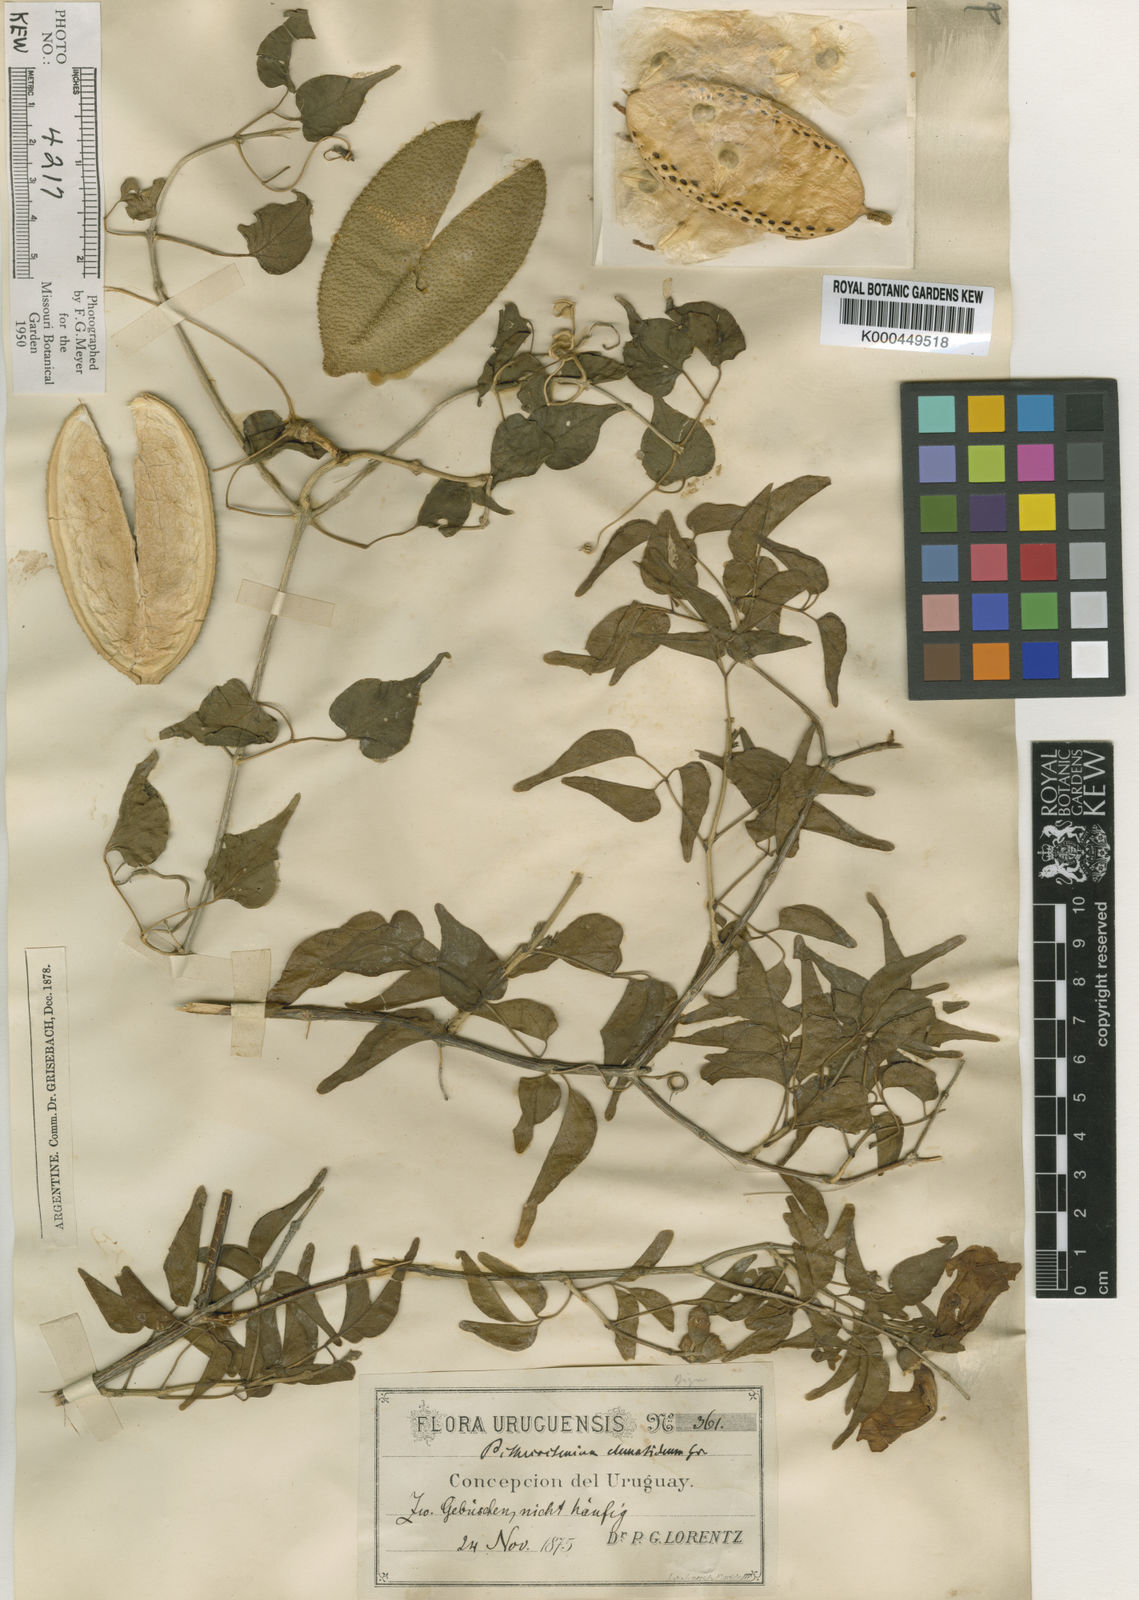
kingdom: Plantae
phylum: Tracheophyta
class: Magnoliopsida
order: Lamiales
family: Bignoniaceae
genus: Amphilophium
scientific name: Amphilophium carolinae
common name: Monkey's-comb
